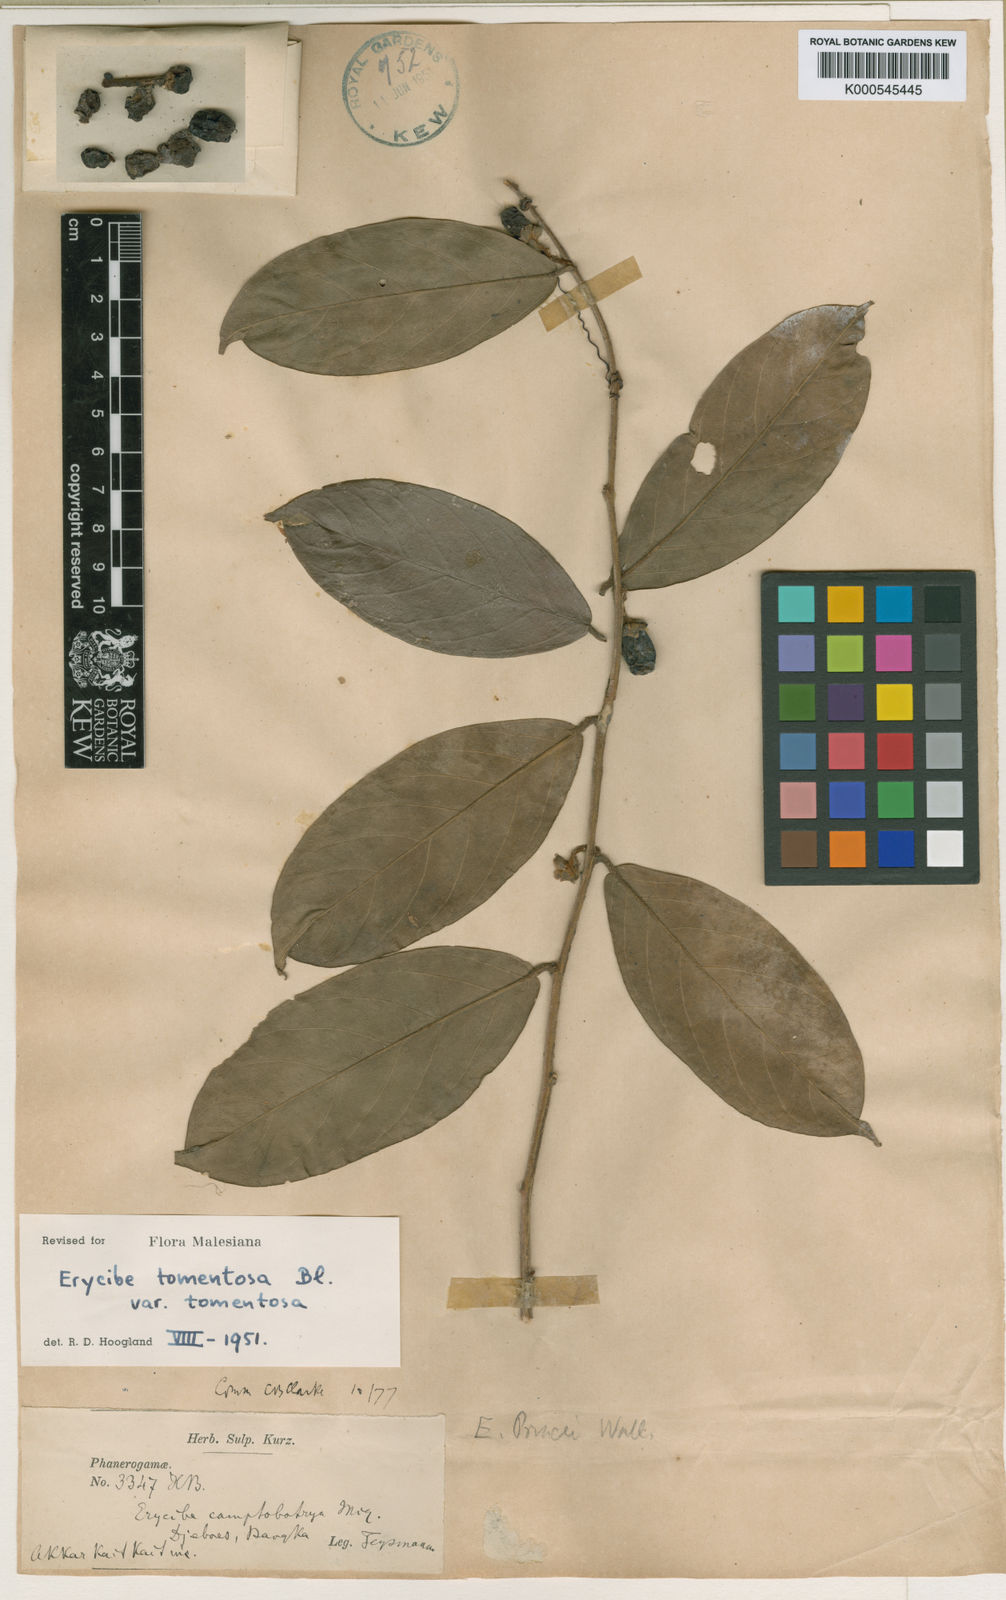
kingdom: Plantae
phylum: Tracheophyta
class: Magnoliopsida
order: Solanales
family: Convolvulaceae
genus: Erycibe
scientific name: Erycibe tomentosa
